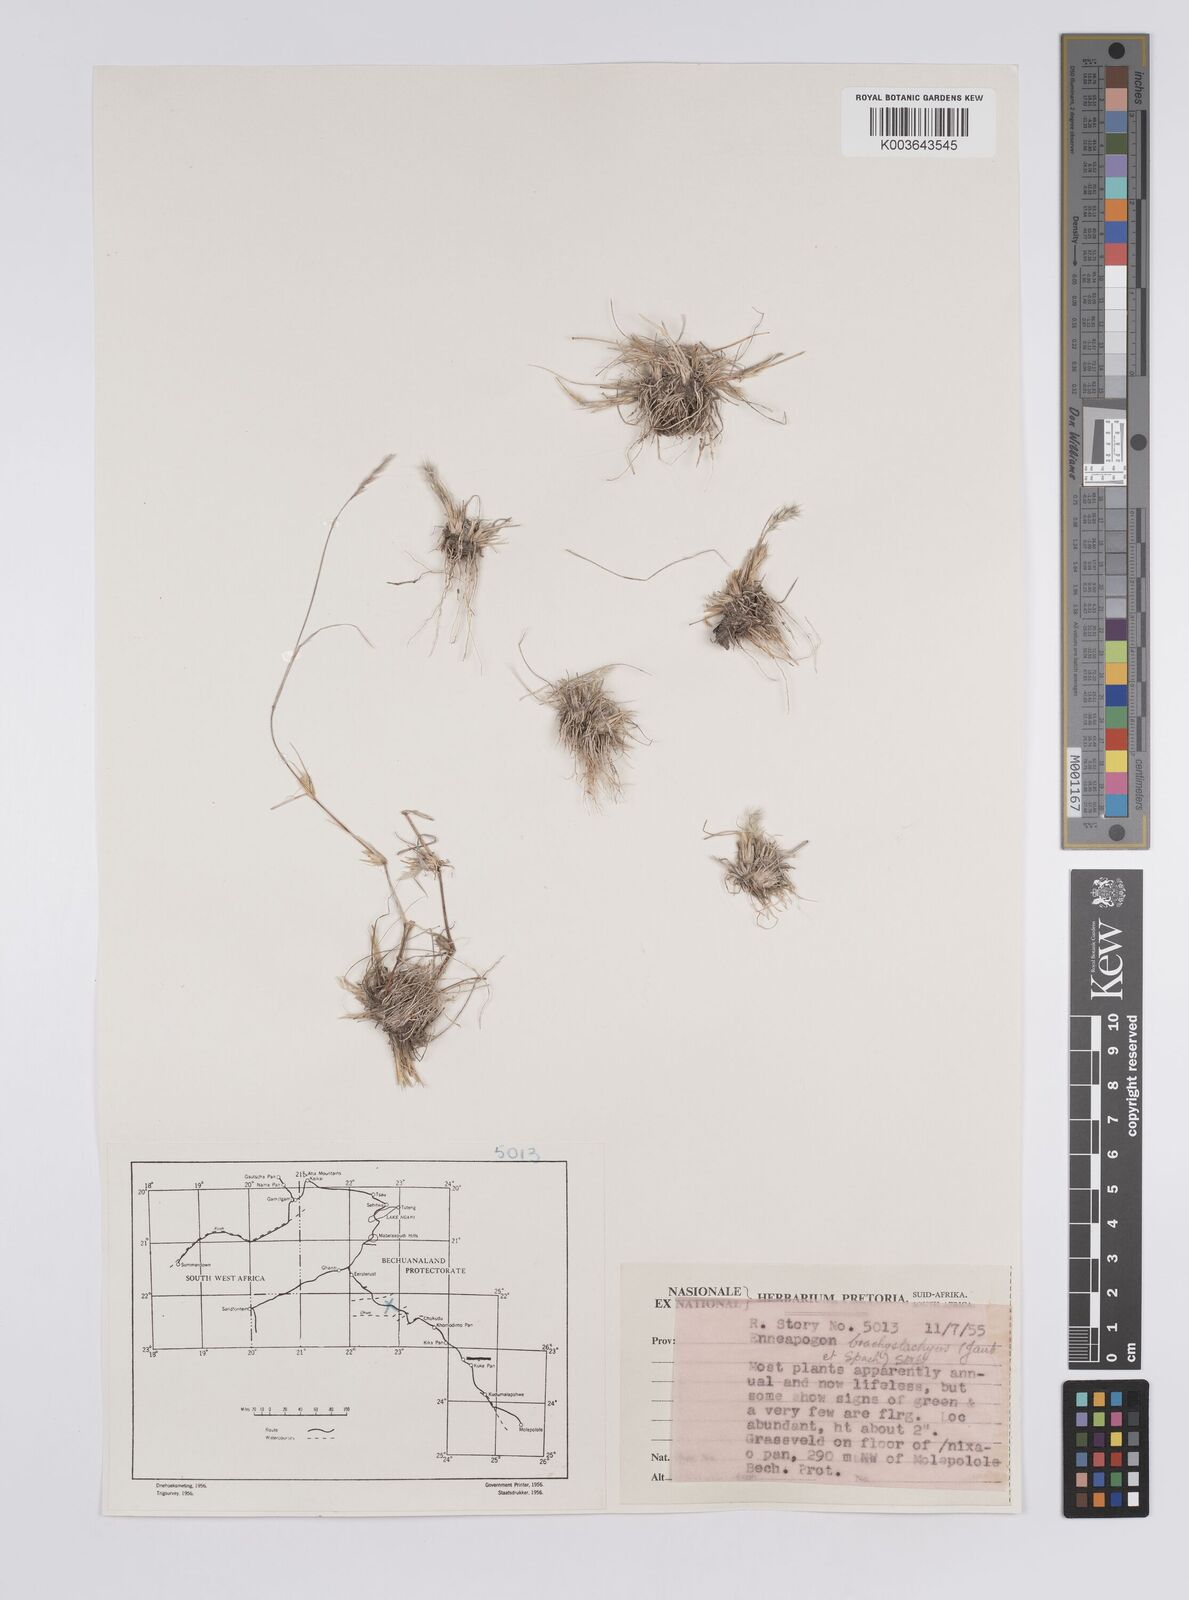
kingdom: Plantae
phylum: Tracheophyta
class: Liliopsida
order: Poales
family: Poaceae
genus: Enneapogon
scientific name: Enneapogon desvauxii
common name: Feather pappus grass
